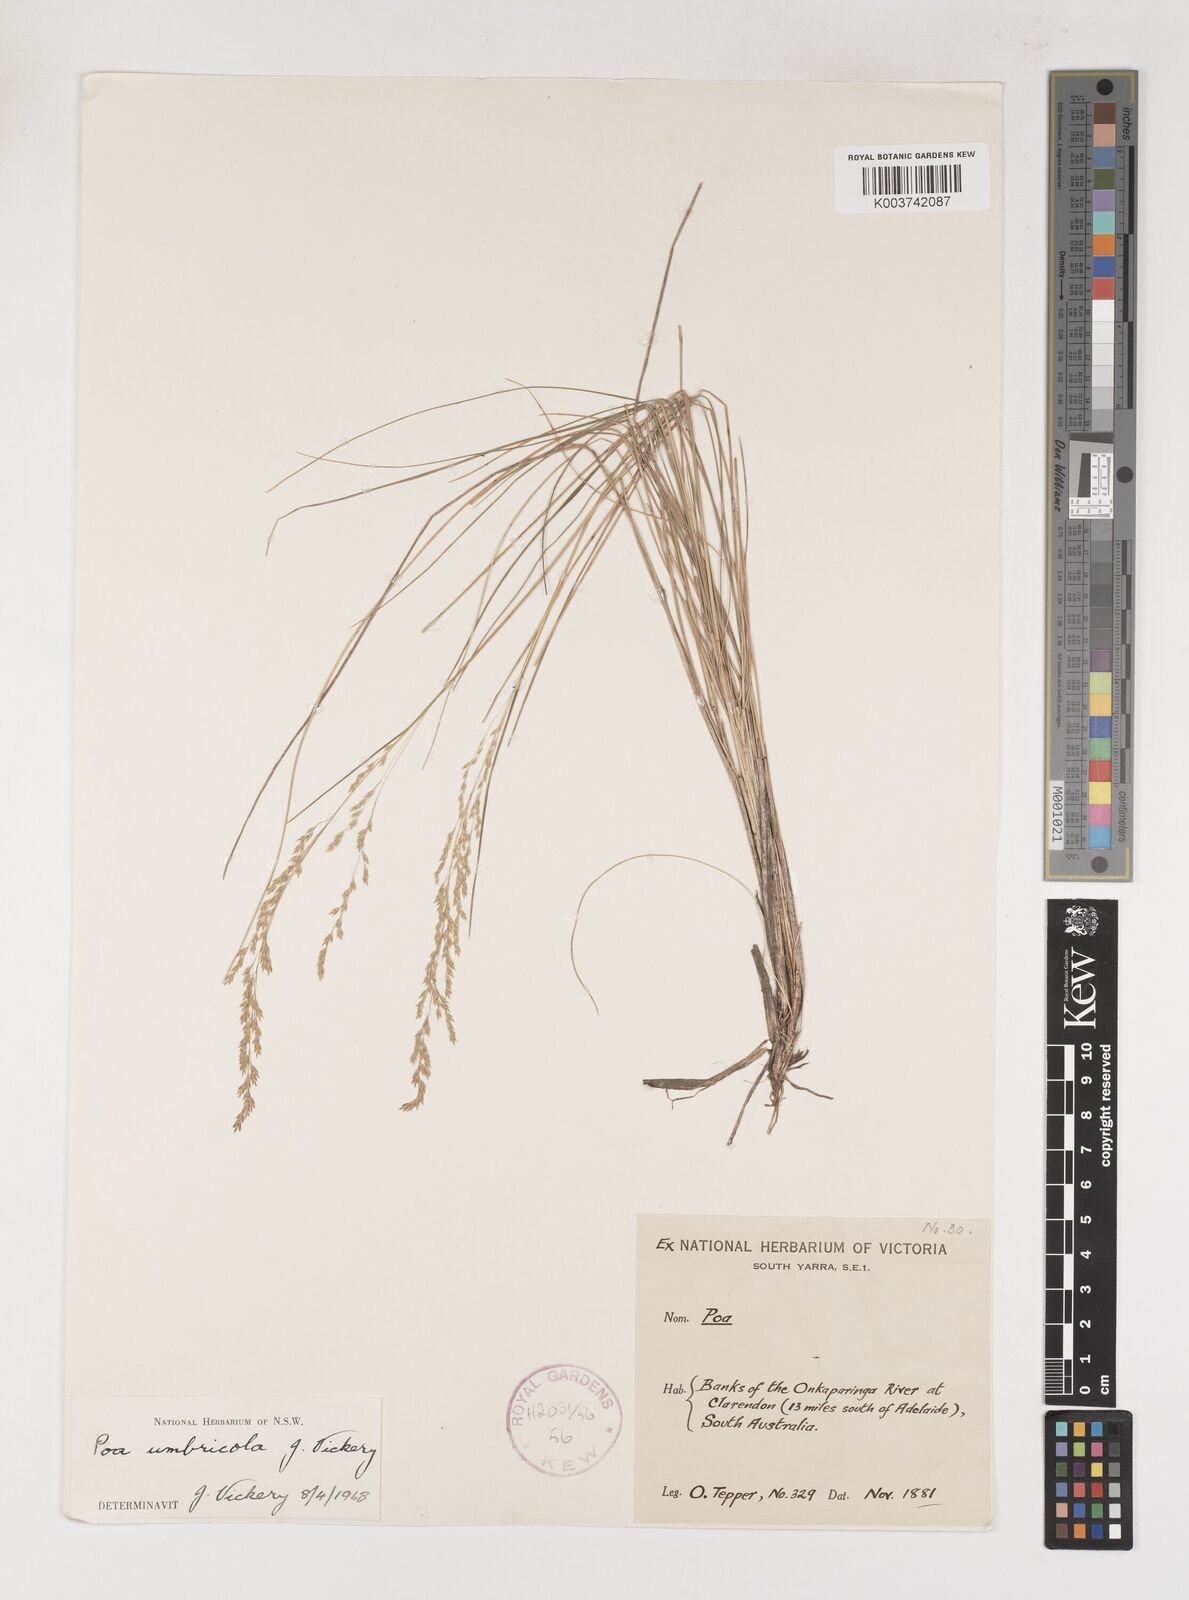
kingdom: Plantae
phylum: Tracheophyta
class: Liliopsida
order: Poales
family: Poaceae
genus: Poa
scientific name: Poa umbricola
